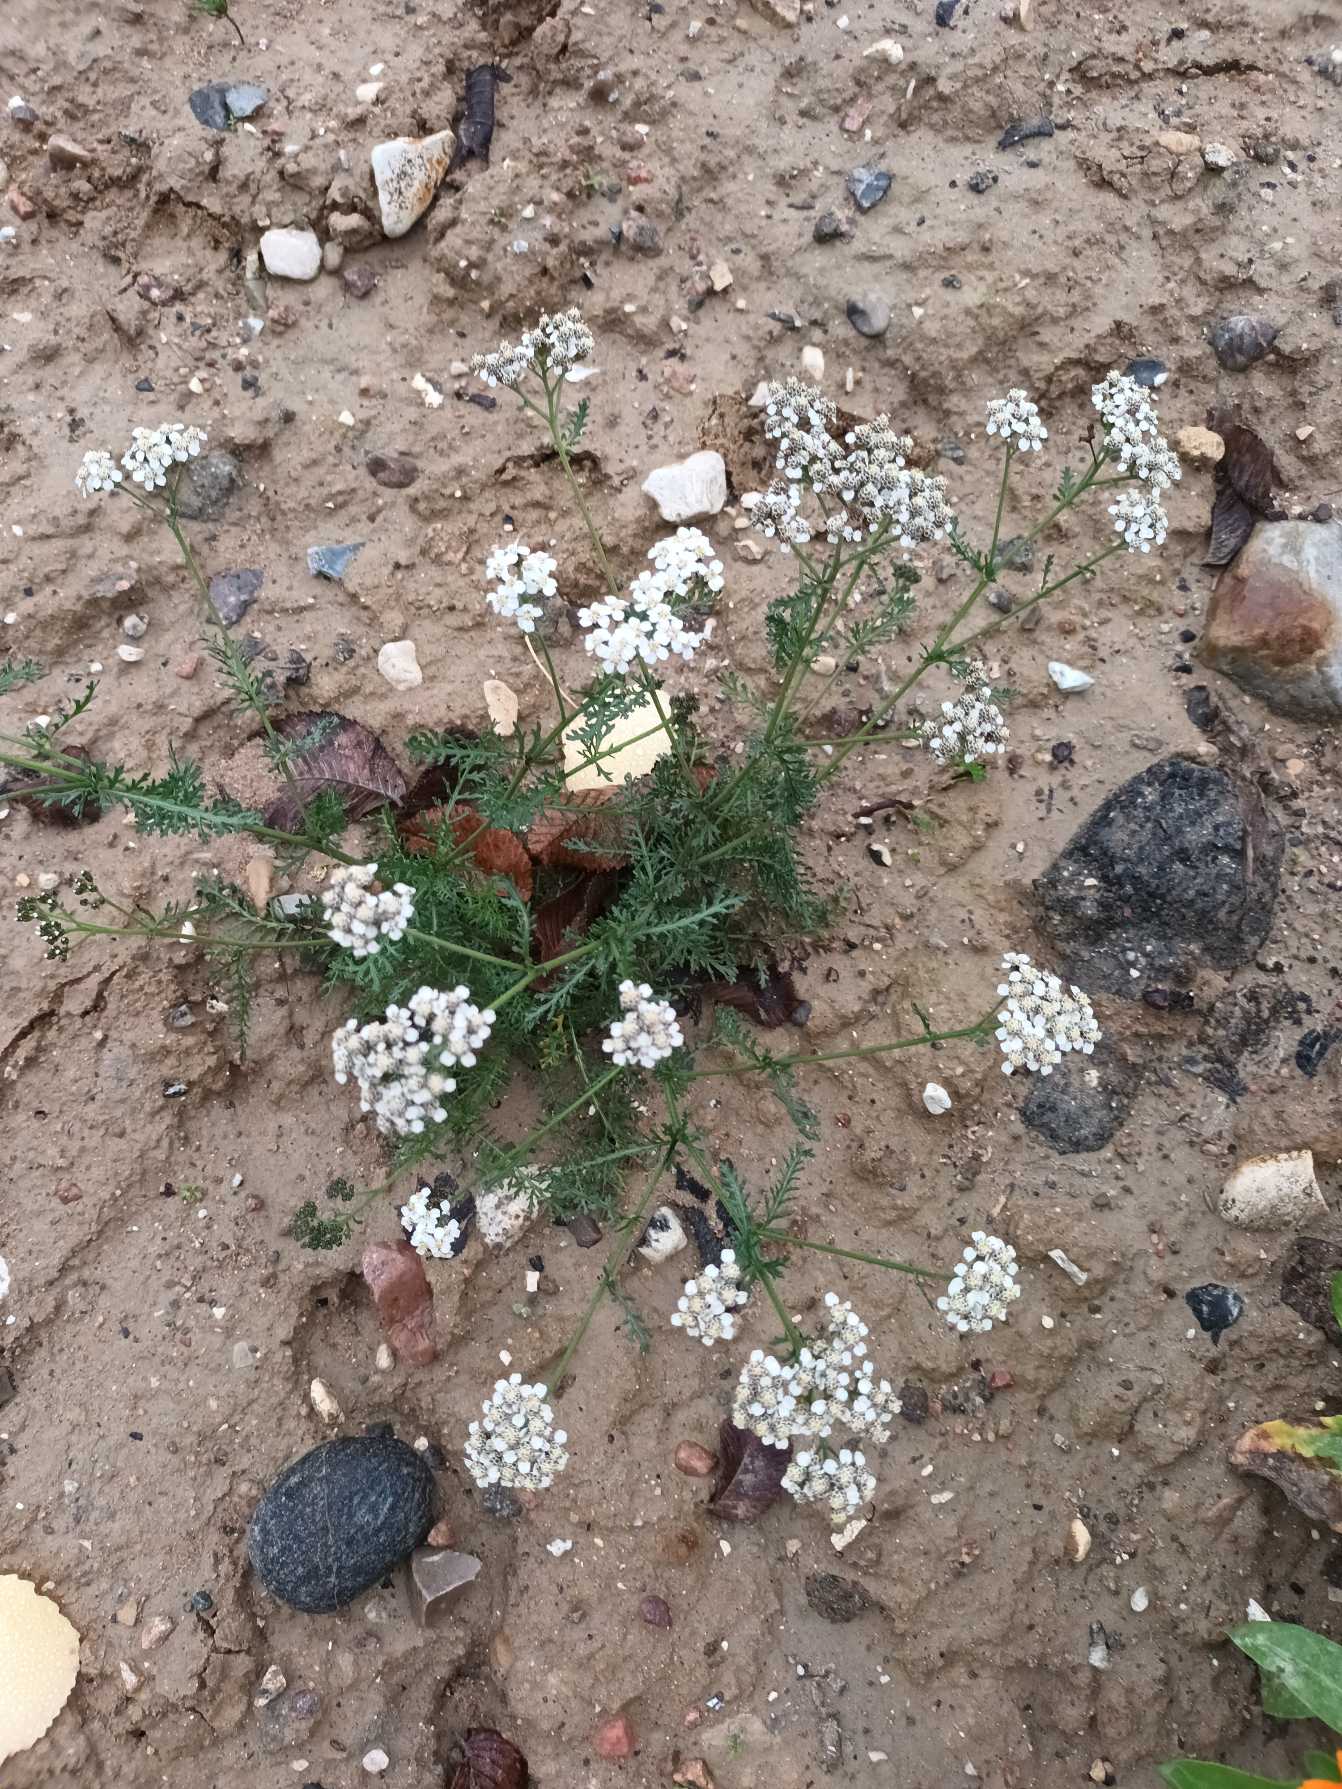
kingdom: Plantae
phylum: Tracheophyta
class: Magnoliopsida
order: Asterales
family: Asteraceae
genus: Achillea
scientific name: Achillea millefolium
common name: Almindelig røllike
